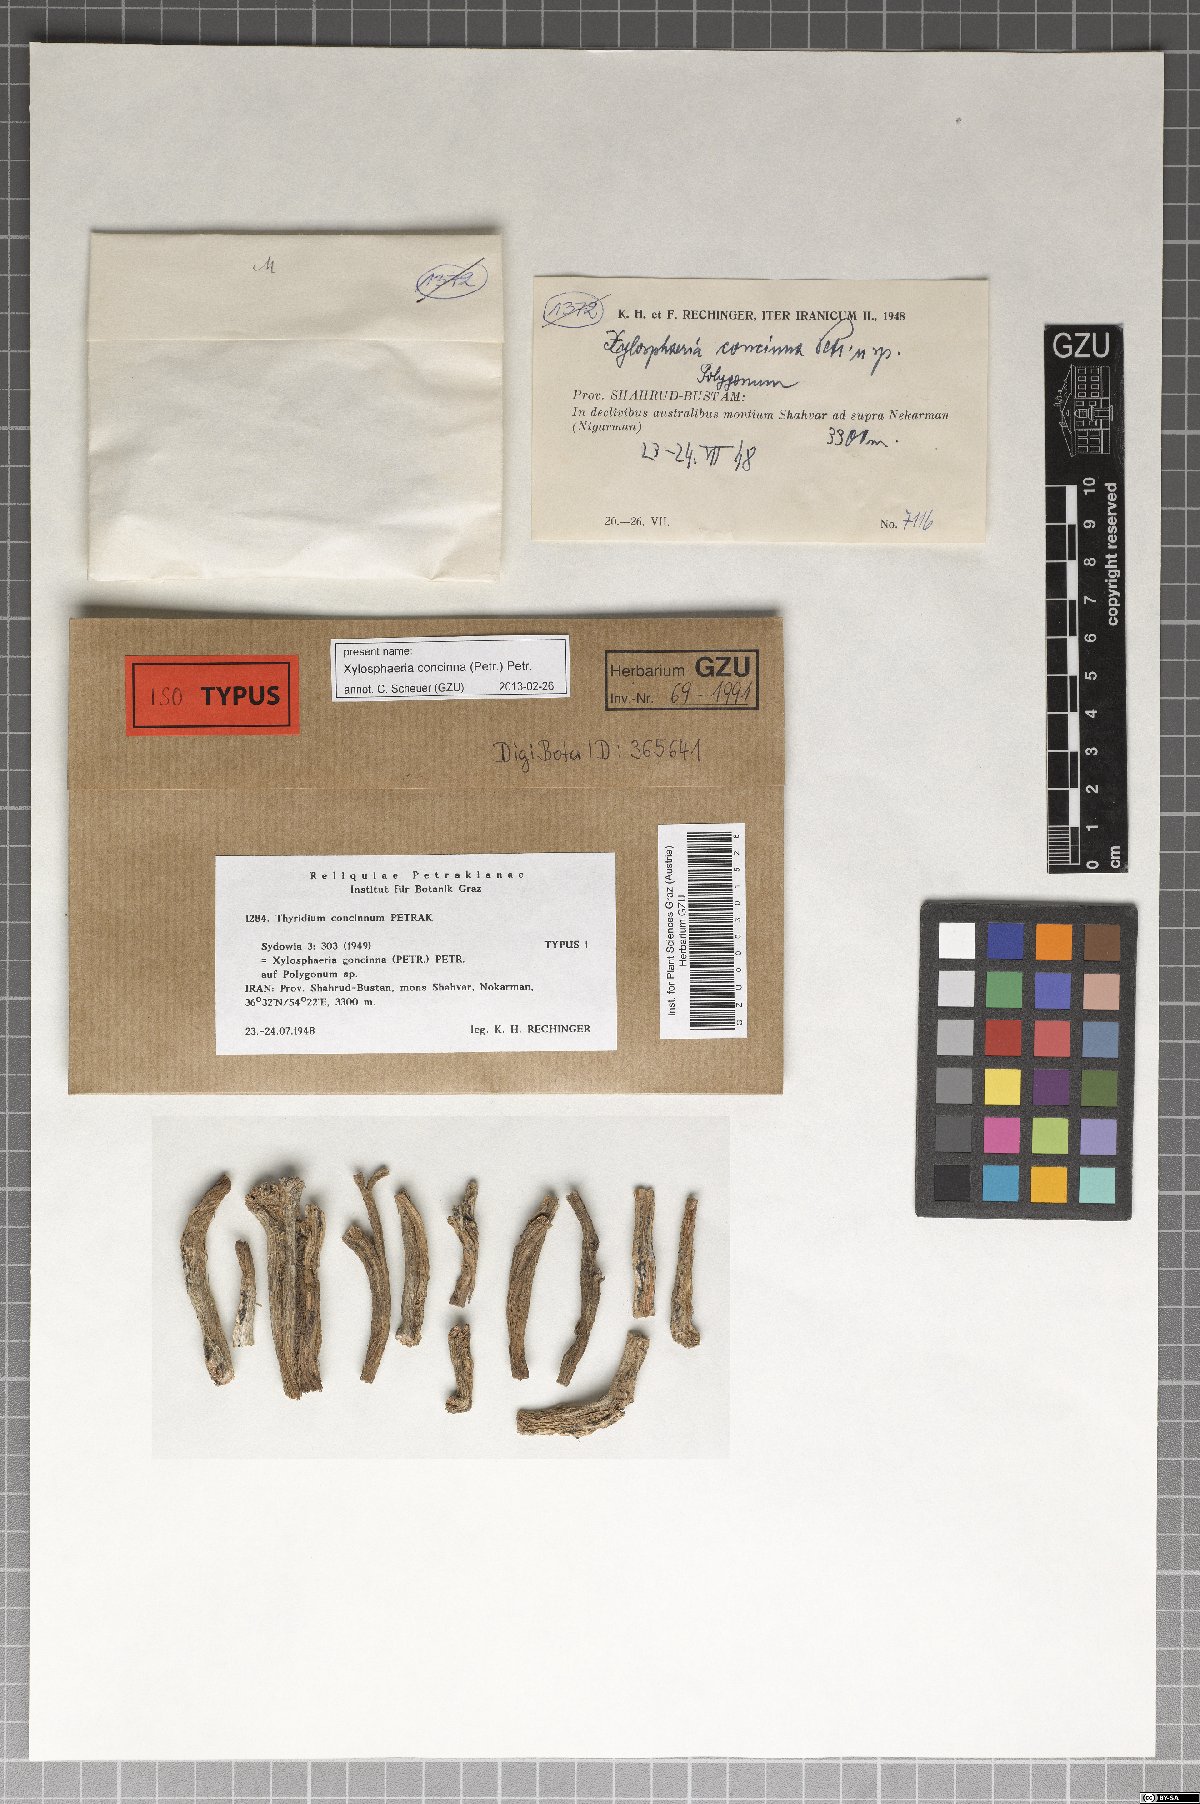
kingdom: Fungi
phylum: Ascomycota
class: Dothideomycetes
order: Pleosporales
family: Lophiostomataceae
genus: Platystomum
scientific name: Platystomum concinnum
